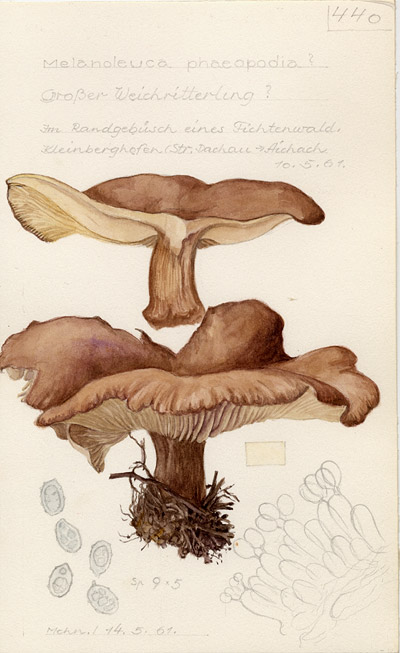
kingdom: Fungi
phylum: Basidiomycota
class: Agaricomycetes
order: Agaricales
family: Tricholomataceae
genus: Melanoleuca
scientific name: Melanoleuca phaeopodia
